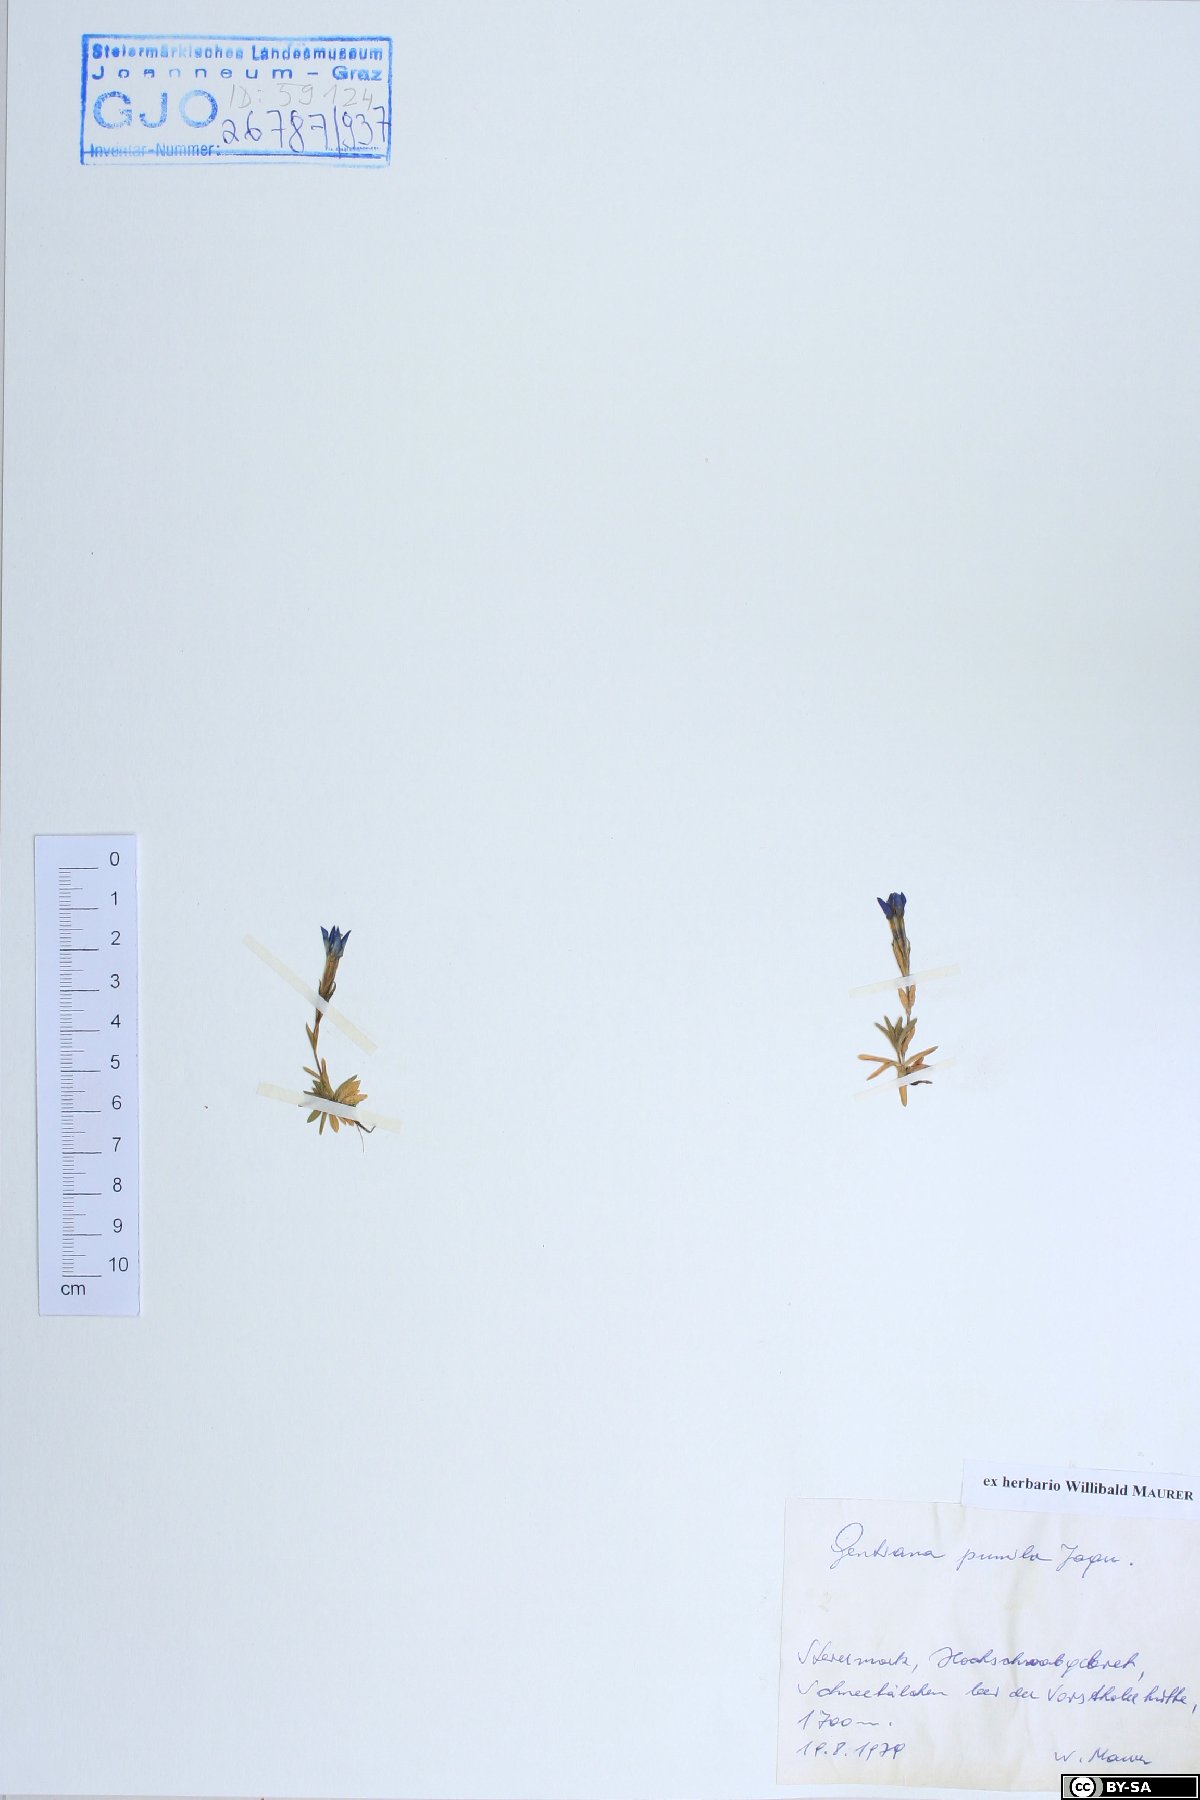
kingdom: Plantae
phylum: Tracheophyta
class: Magnoliopsida
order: Gentianales
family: Gentianaceae
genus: Gentiana
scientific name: Gentiana pumila
